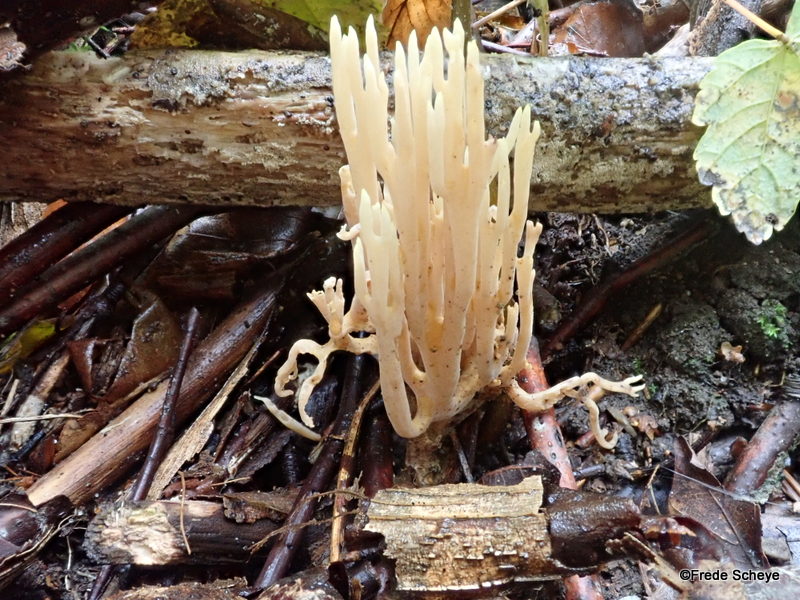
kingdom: Fungi
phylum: Basidiomycota
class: Agaricomycetes
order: Gomphales
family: Gomphaceae
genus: Ramaria
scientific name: Ramaria stricta
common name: rank koralsvamp
